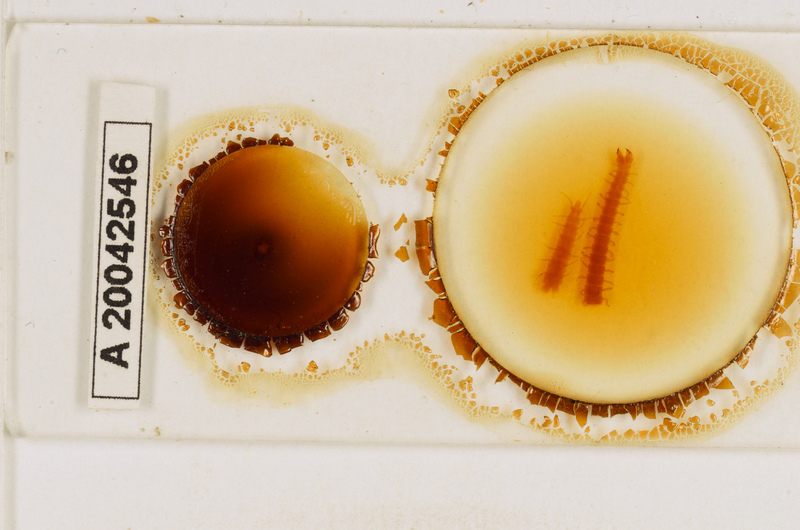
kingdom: Animalia
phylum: Arthropoda
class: Chilopoda
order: Geophilomorpha
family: Geophilidae
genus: Tuoba
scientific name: Tuoba poseidonis
